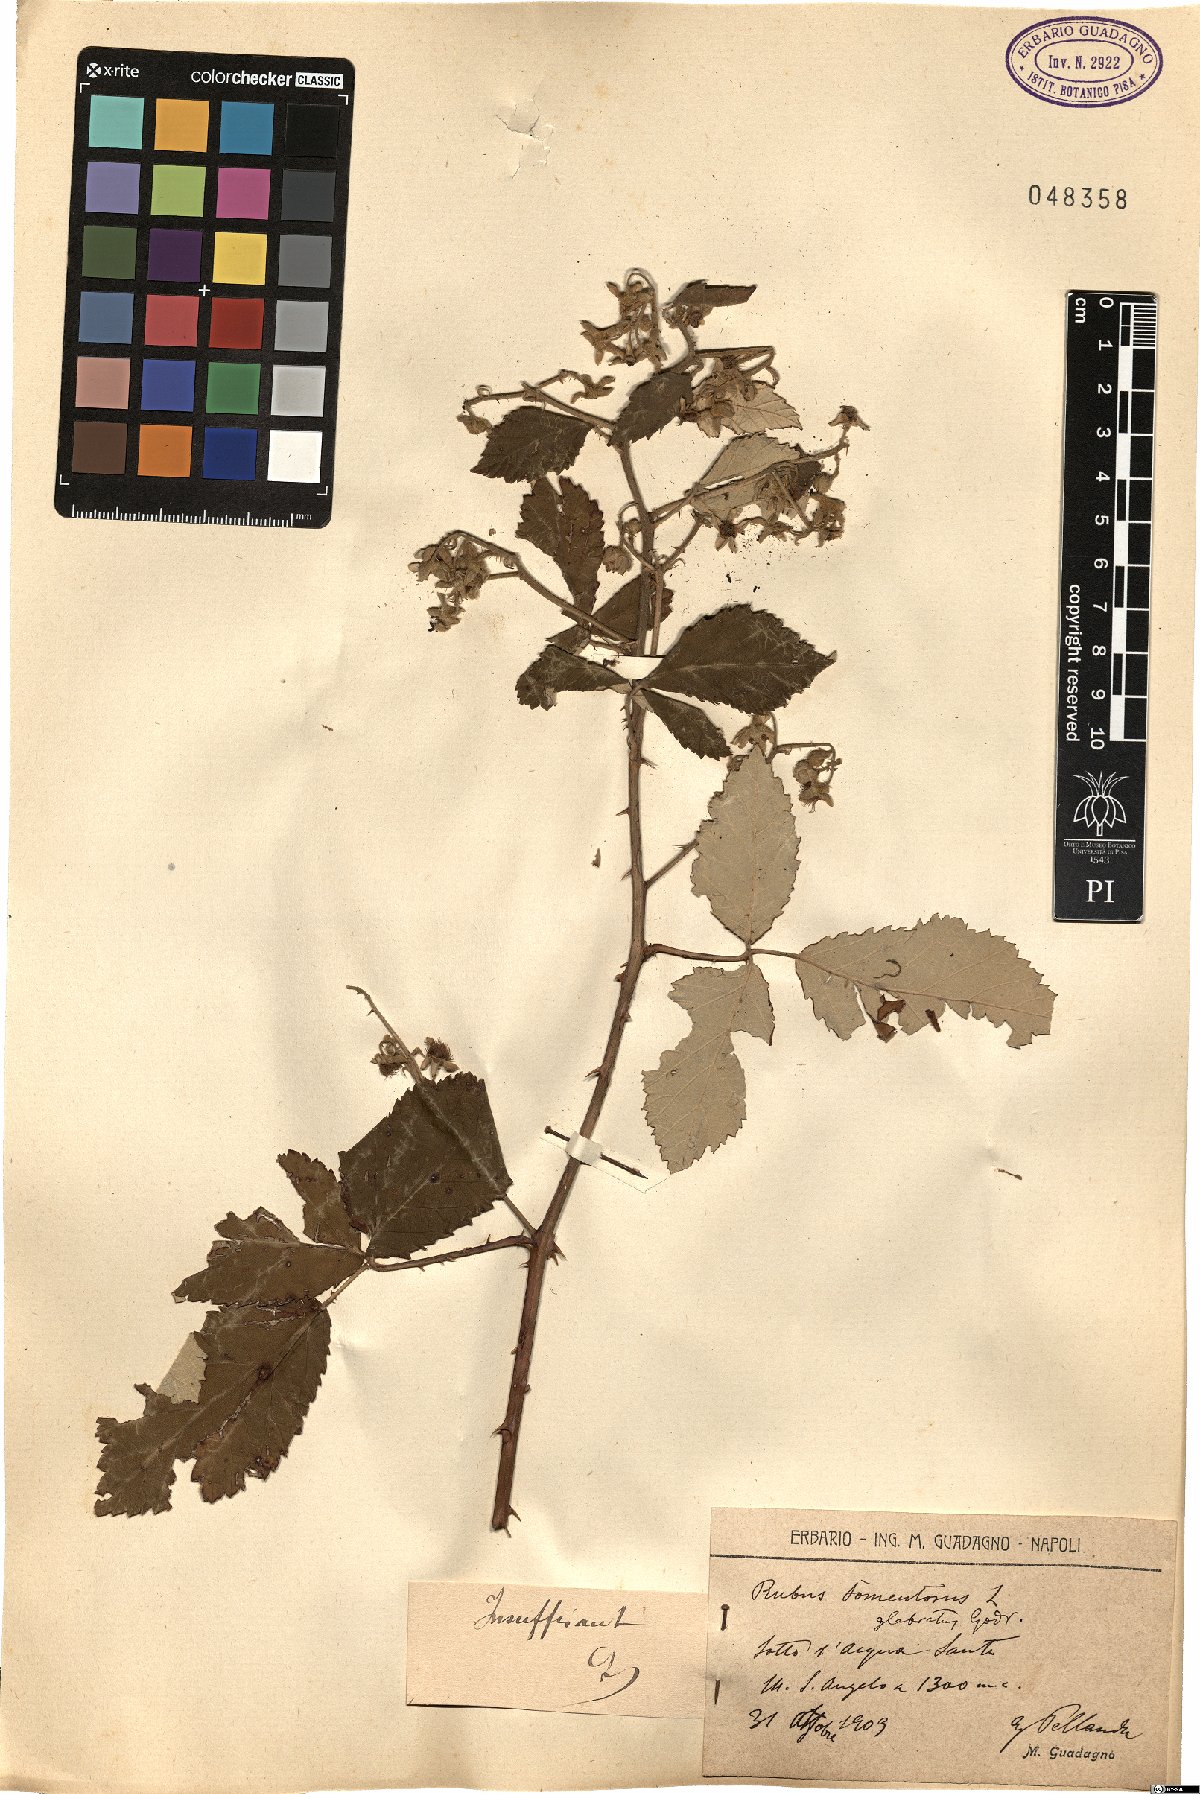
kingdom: Plantae
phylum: Tracheophyta
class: Magnoliopsida
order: Rosales
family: Rosaceae
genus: Rubus
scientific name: Rubus
